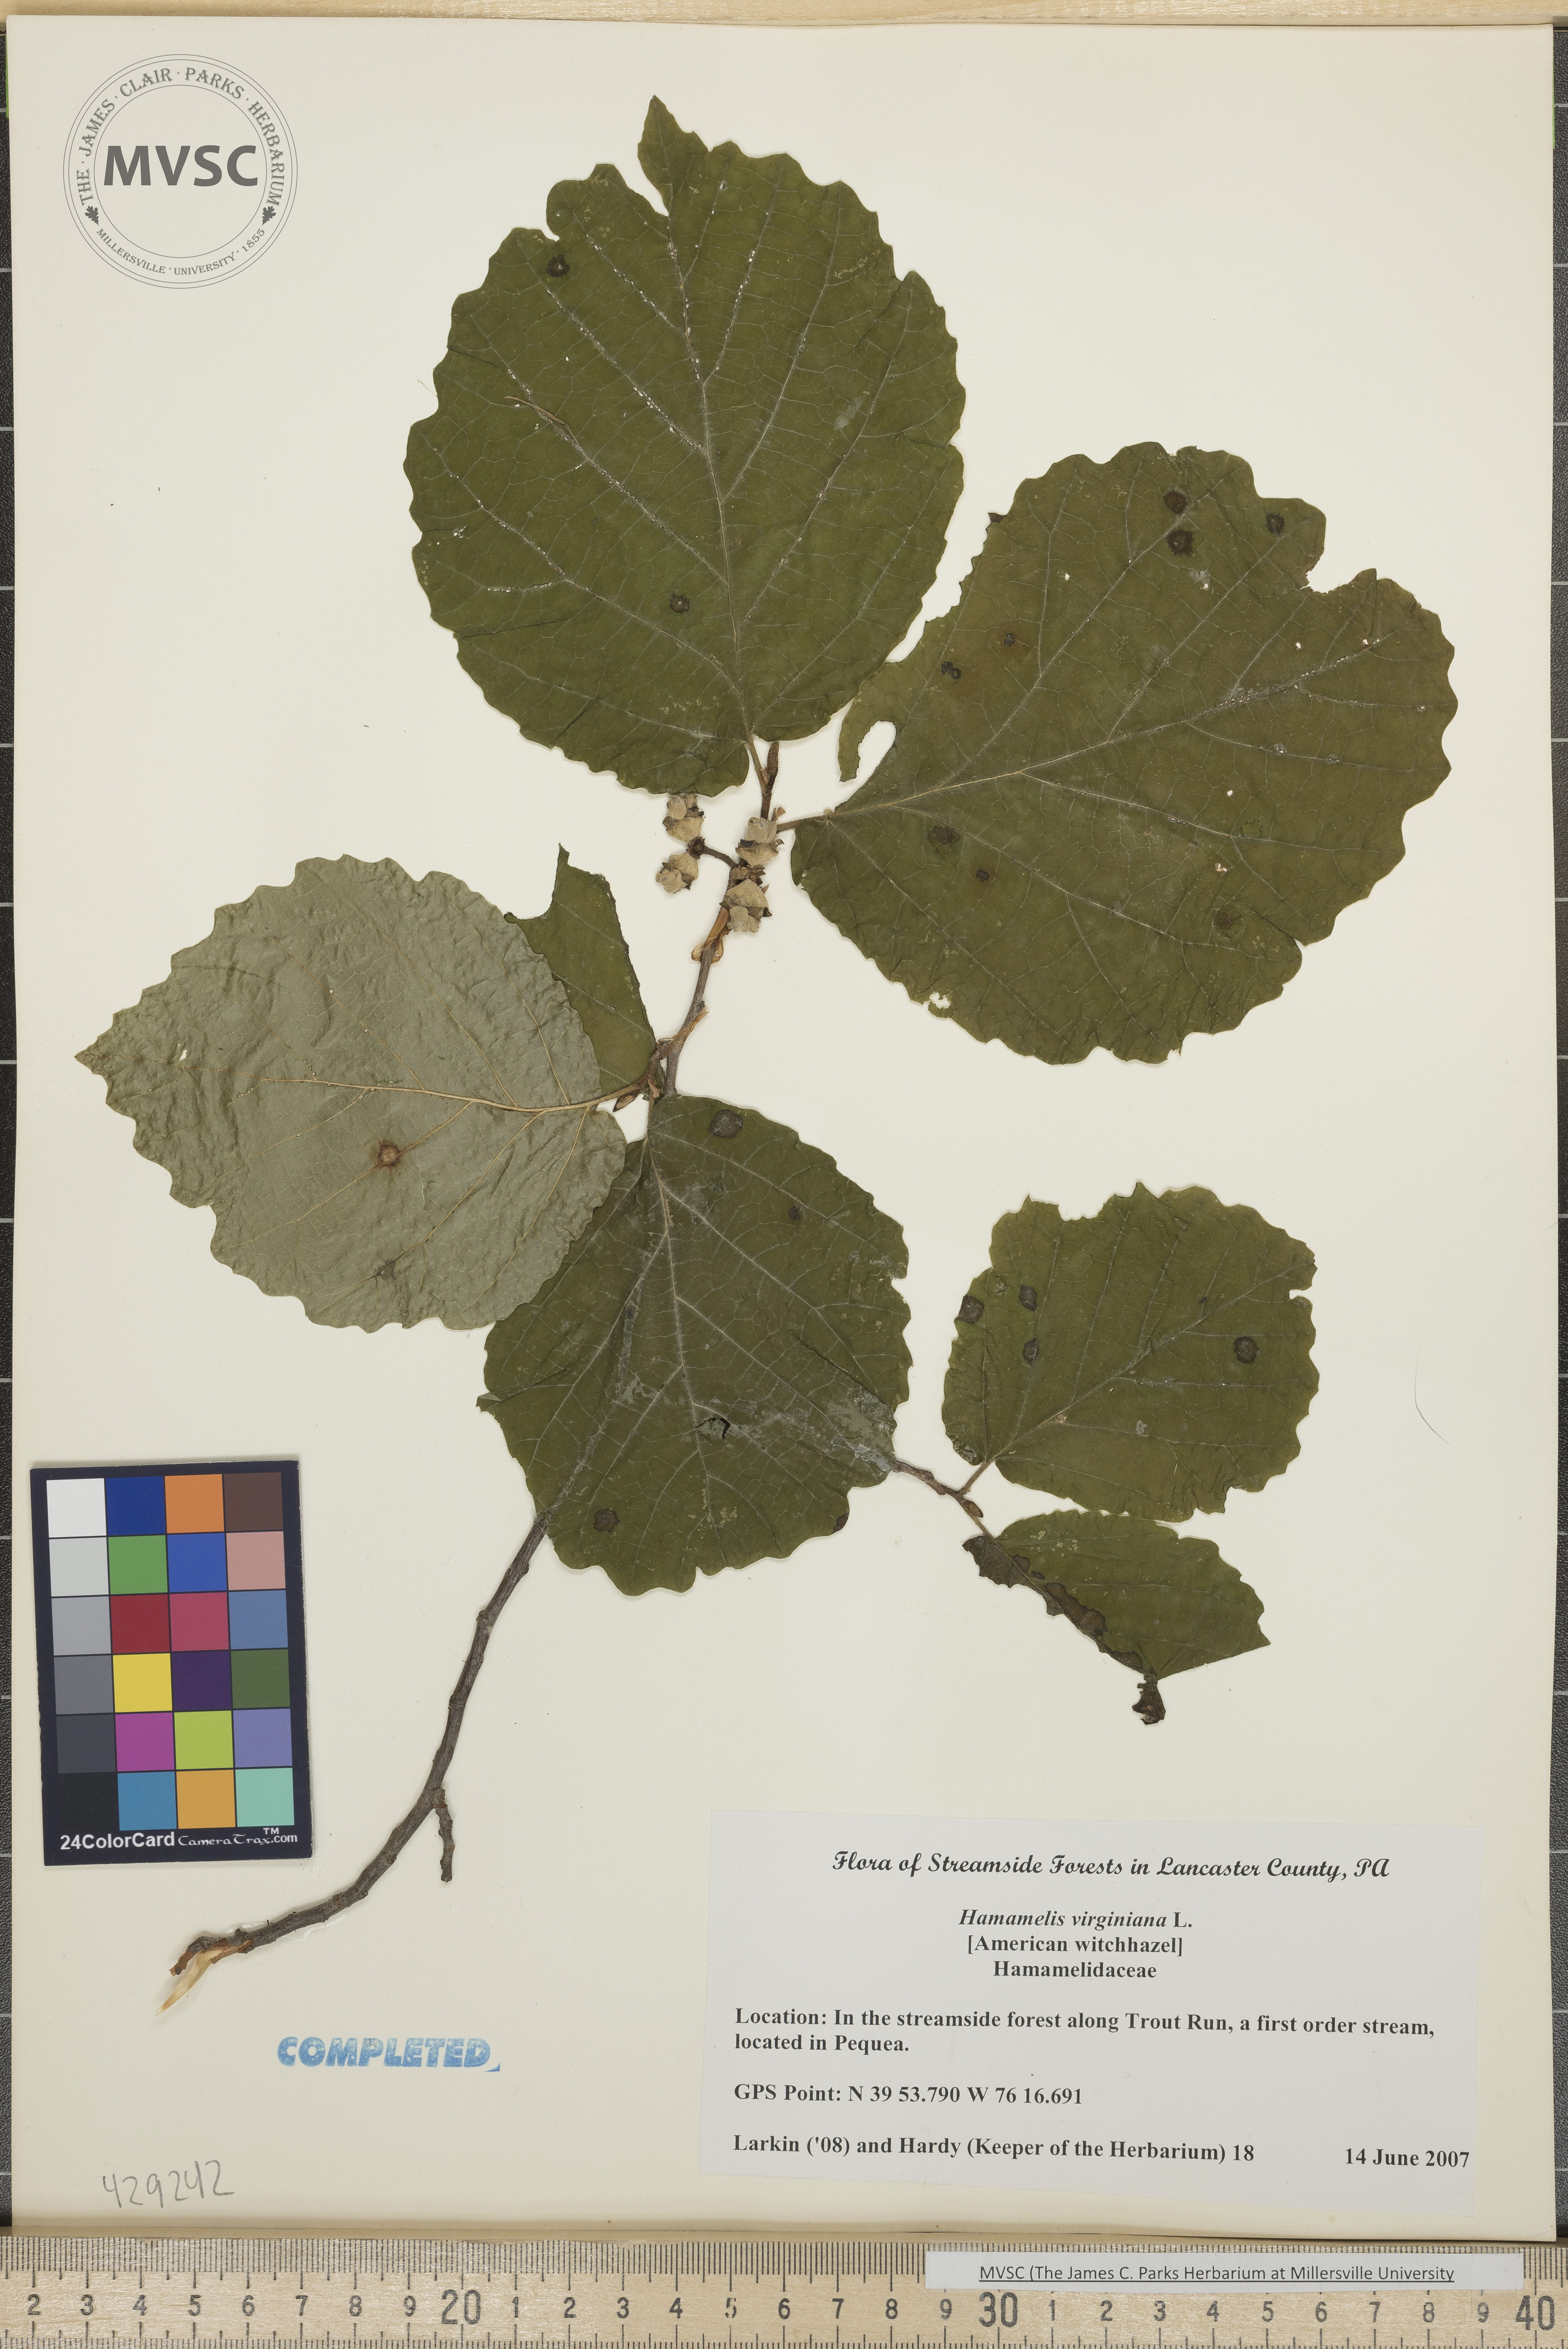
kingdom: Plantae
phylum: Tracheophyta
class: Magnoliopsida
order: Saxifragales
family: Hamamelidaceae
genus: Hamamelis
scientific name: Hamamelis virginiana
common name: Witch hazel
